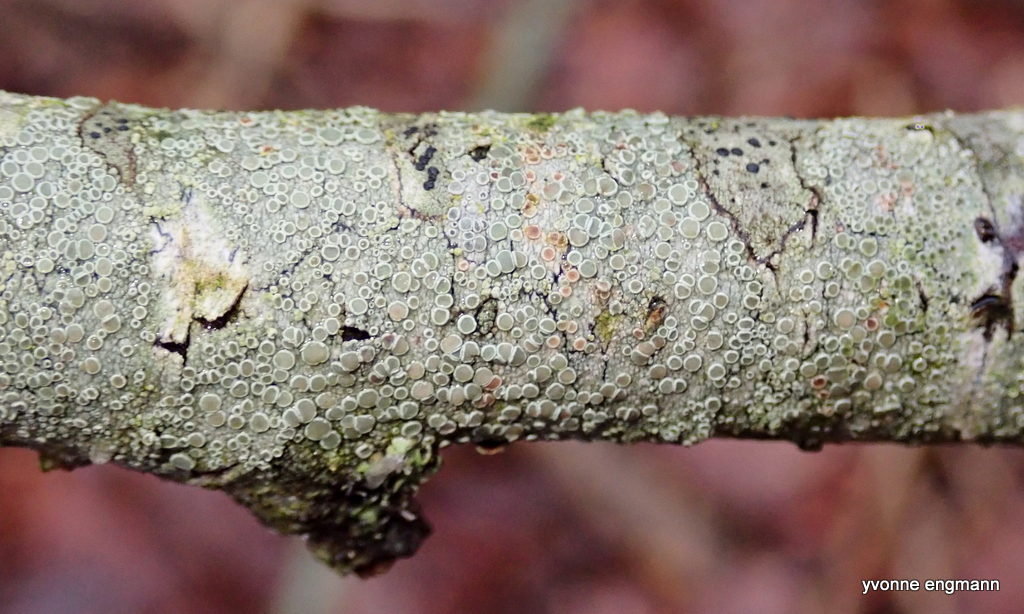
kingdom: Fungi
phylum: Ascomycota
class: Lecanoromycetes
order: Lecanorales
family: Lecanoraceae
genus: Lecanora
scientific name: Lecanora chlarotera
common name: brun kantskivelav
